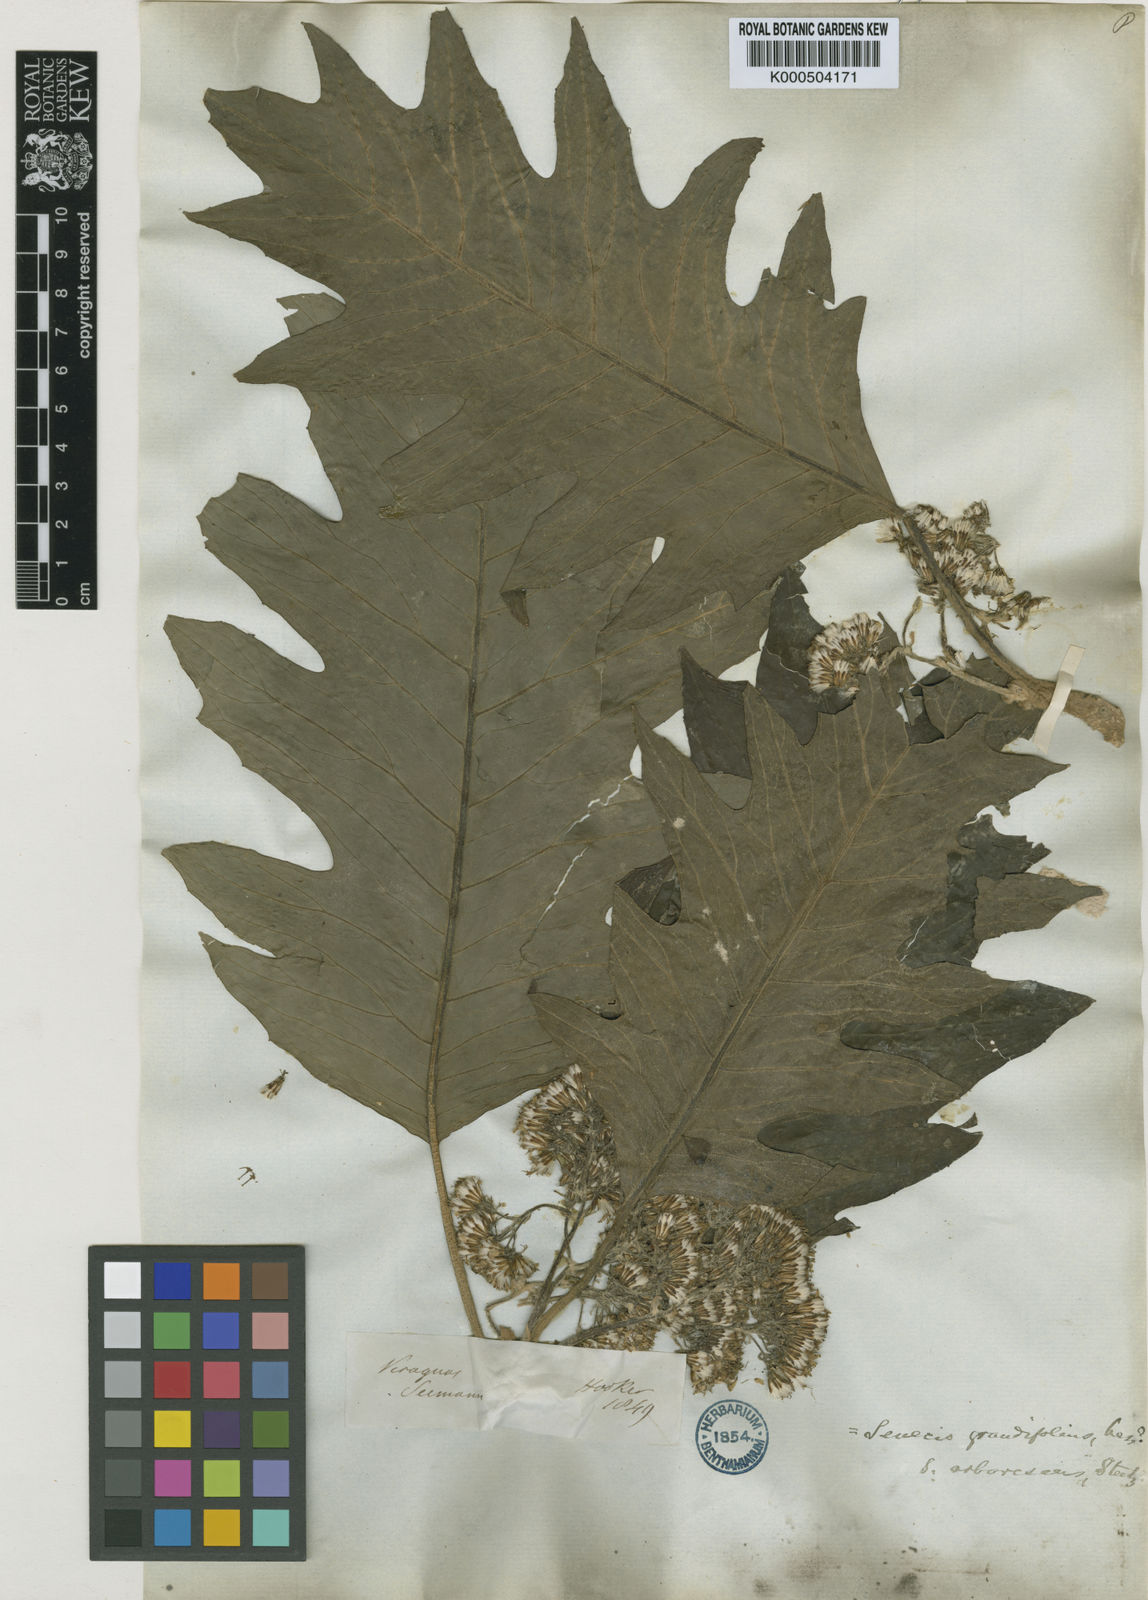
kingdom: Plantae
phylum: Tracheophyta
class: Magnoliopsida
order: Asterales
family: Asteraceae
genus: Telanthophora
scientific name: Telanthophora grandifolia
